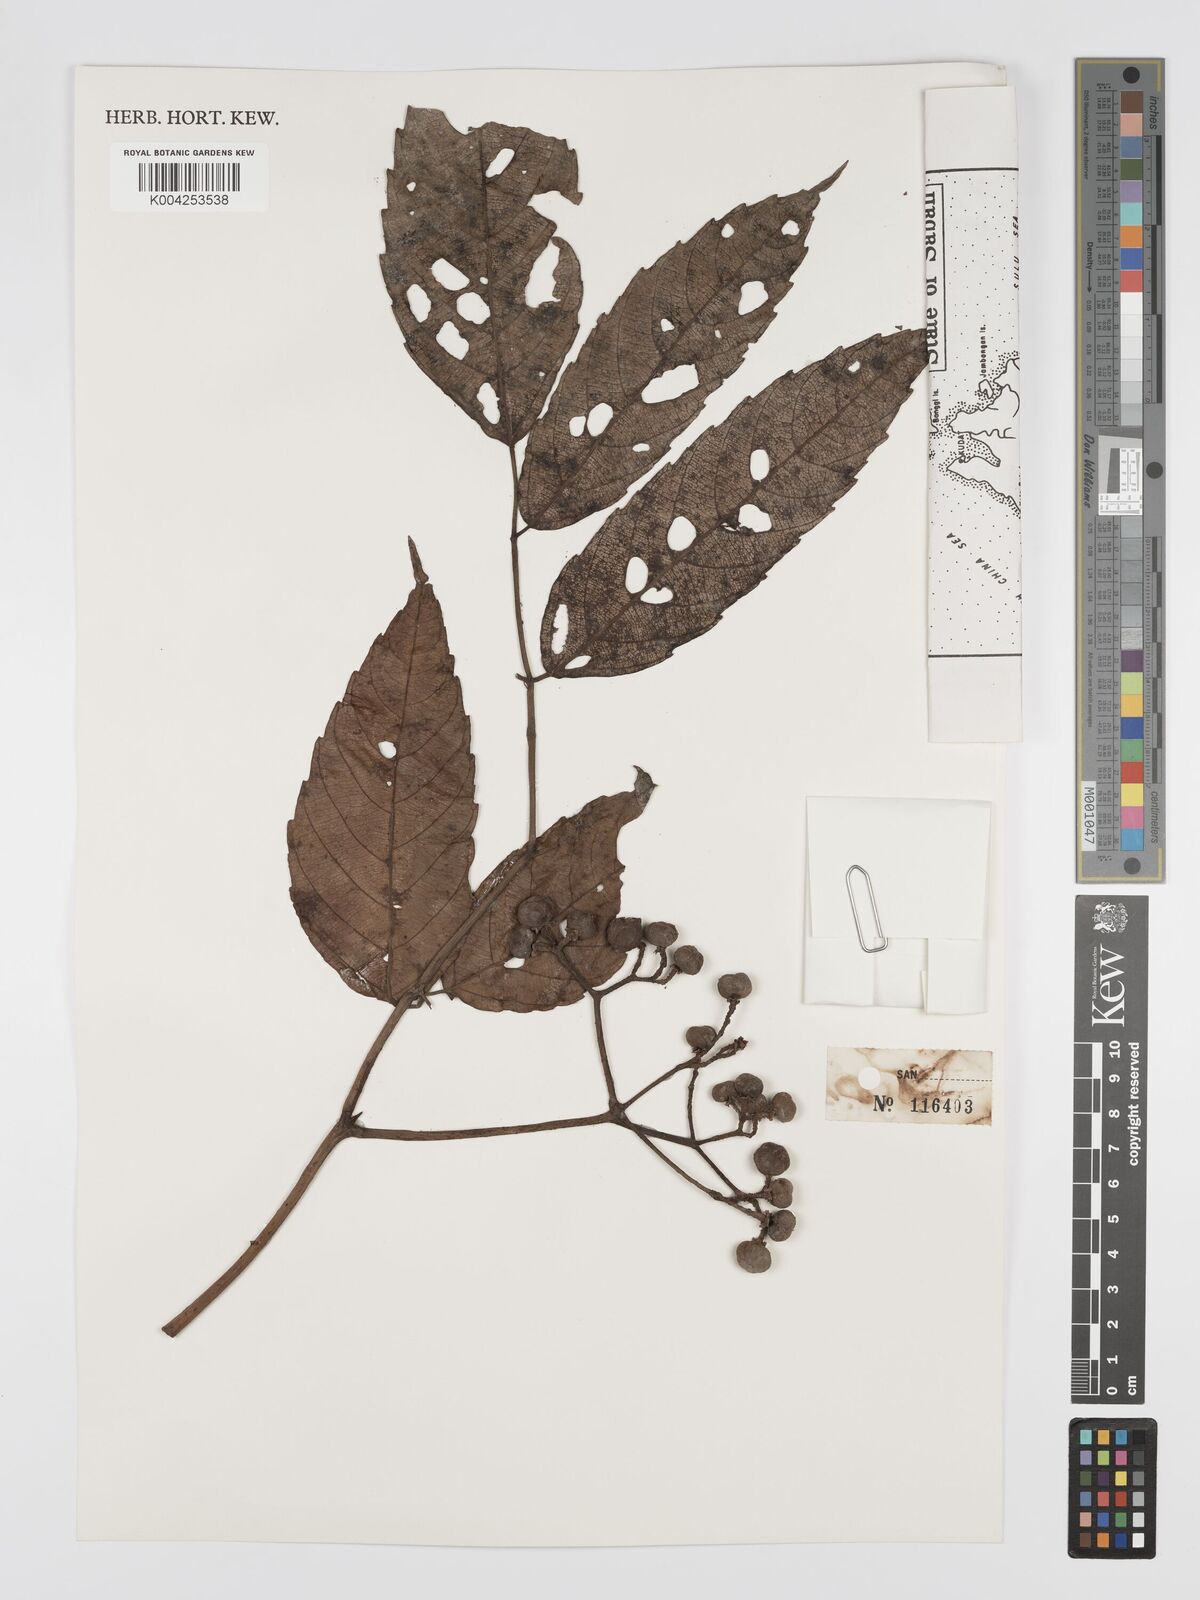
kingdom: Plantae
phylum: Tracheophyta
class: Magnoliopsida
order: Vitales
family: Vitaceae
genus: Leea
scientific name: Leea aculeata
